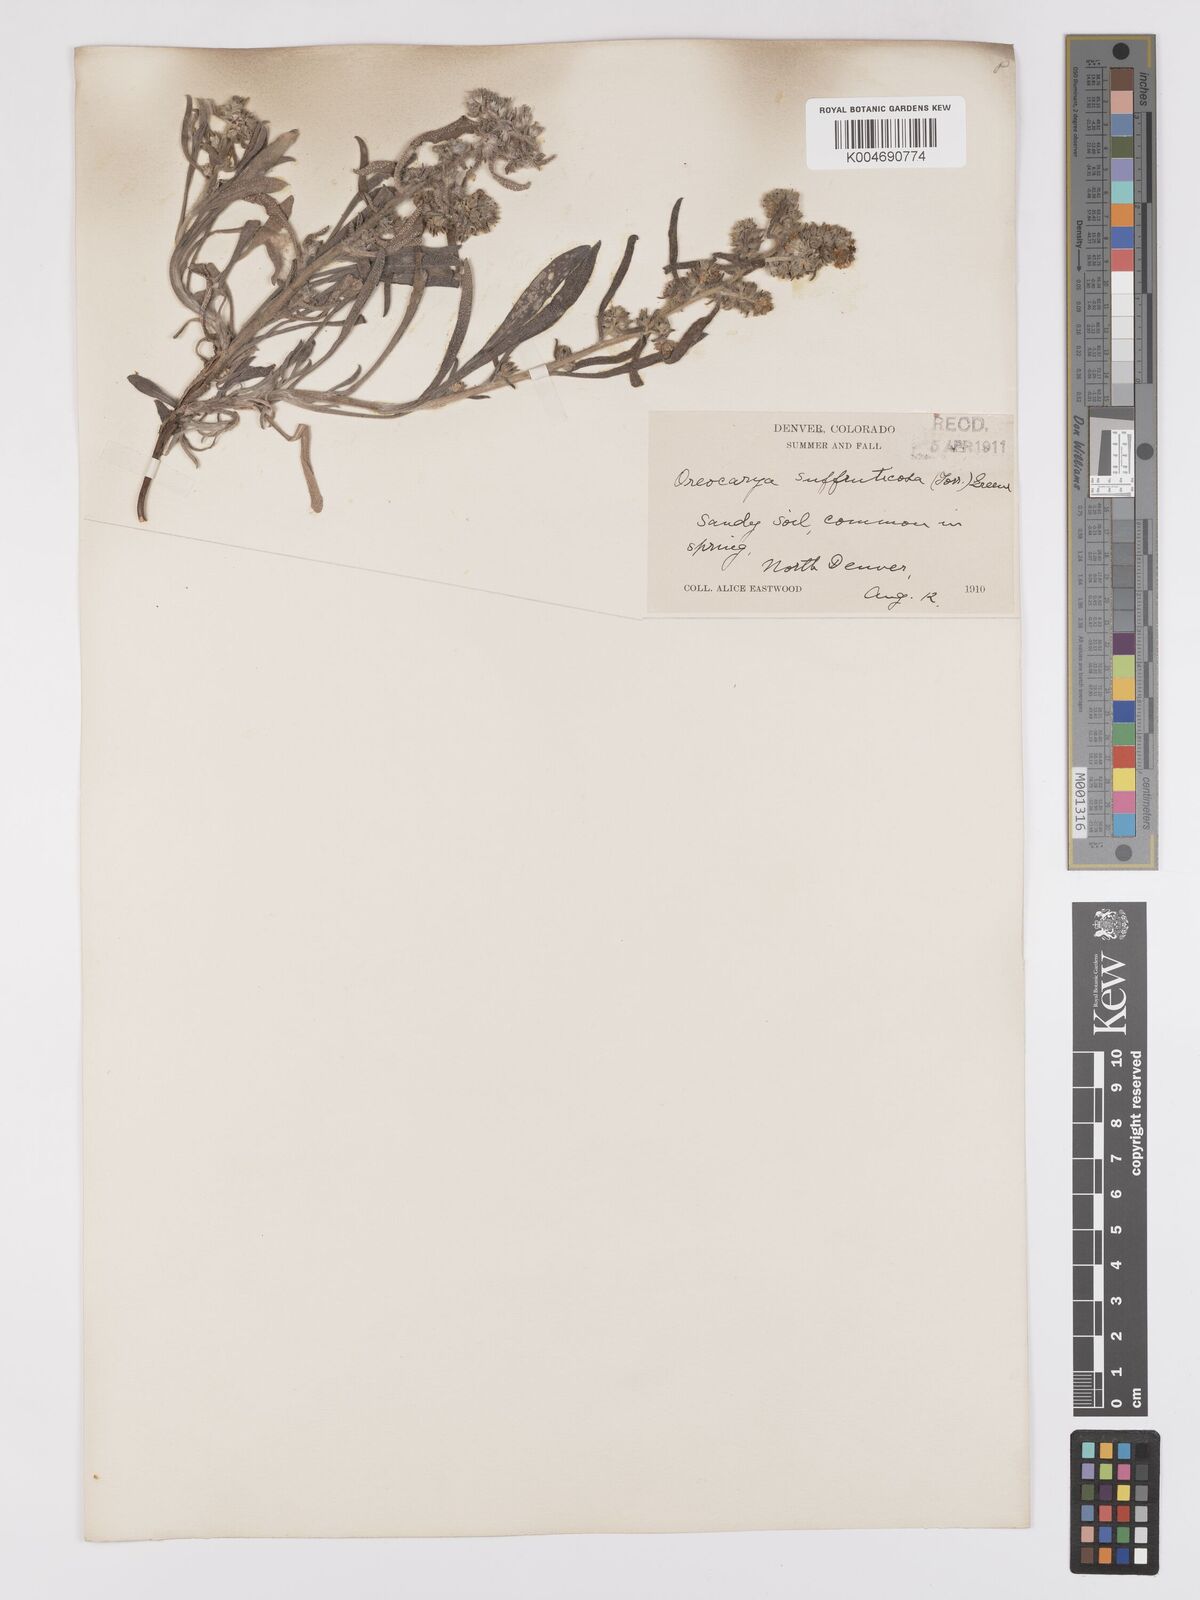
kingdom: Plantae
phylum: Tracheophyta
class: Magnoliopsida
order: Boraginales
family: Boraginaceae
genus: Oreocarya
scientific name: Oreocarya suffruticosa
